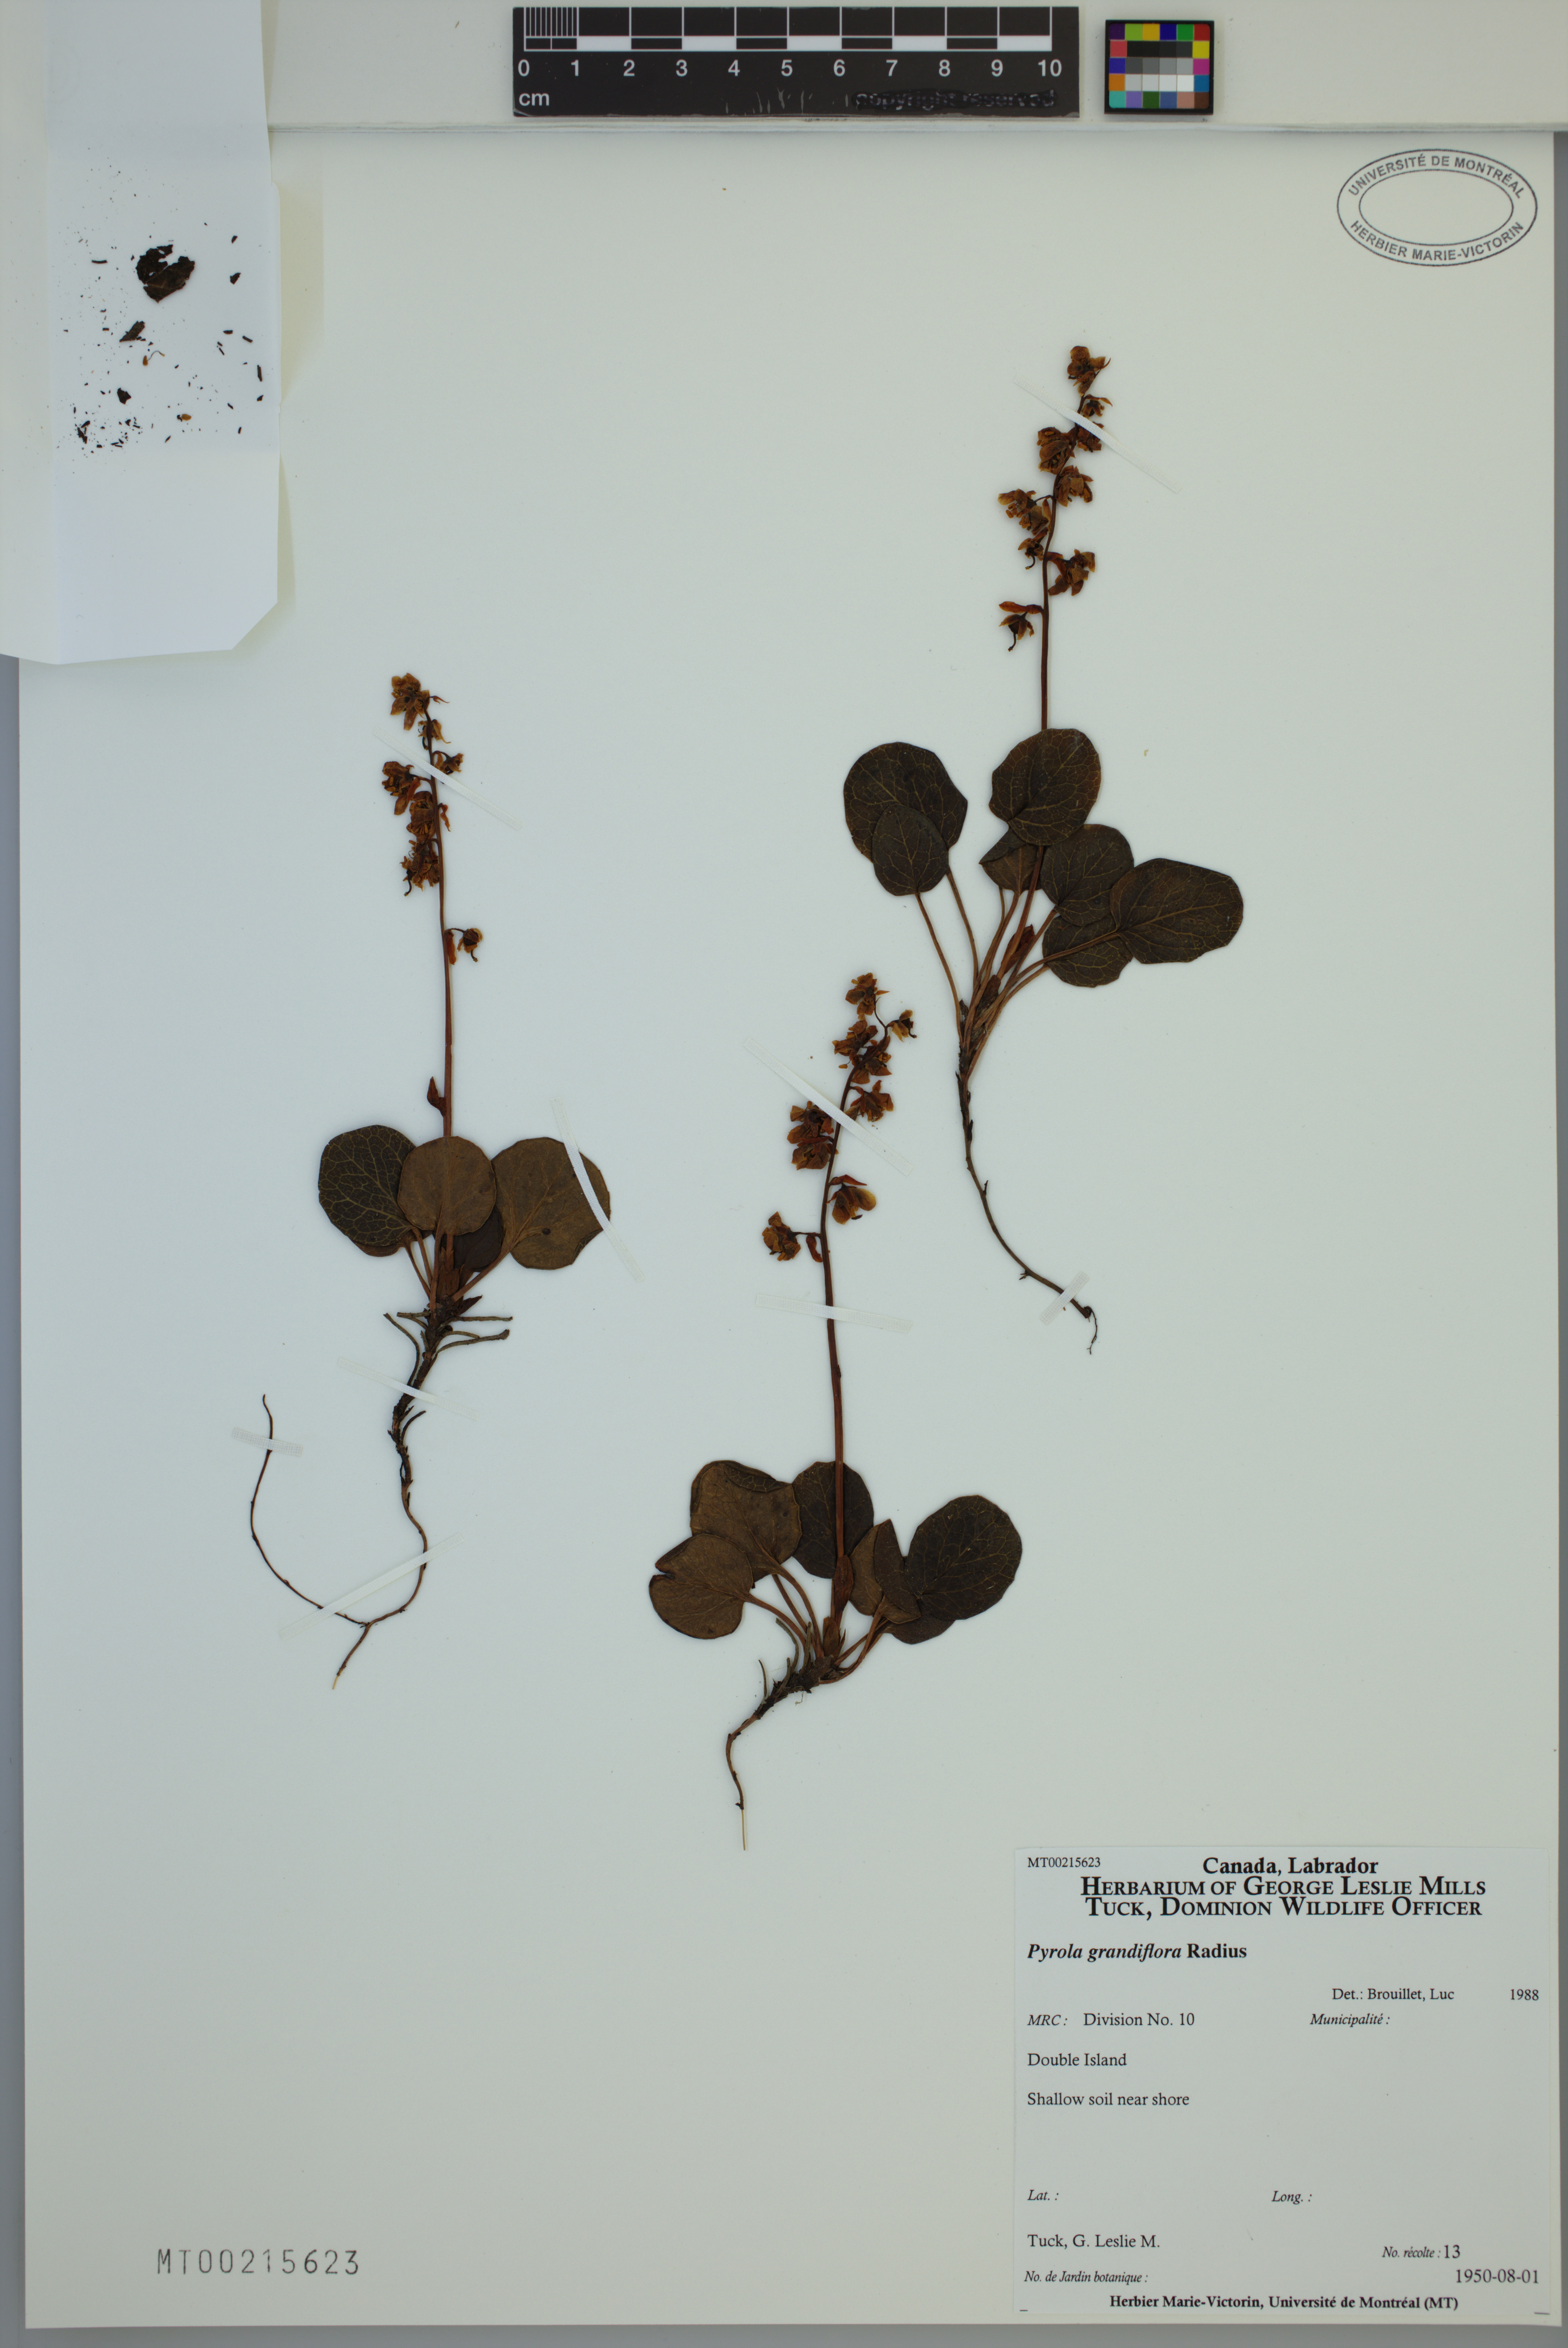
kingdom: Plantae
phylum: Tracheophyta
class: Magnoliopsida
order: Ericales
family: Ericaceae
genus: Pyrola
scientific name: Pyrola grandiflora
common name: Arctic pyrola
